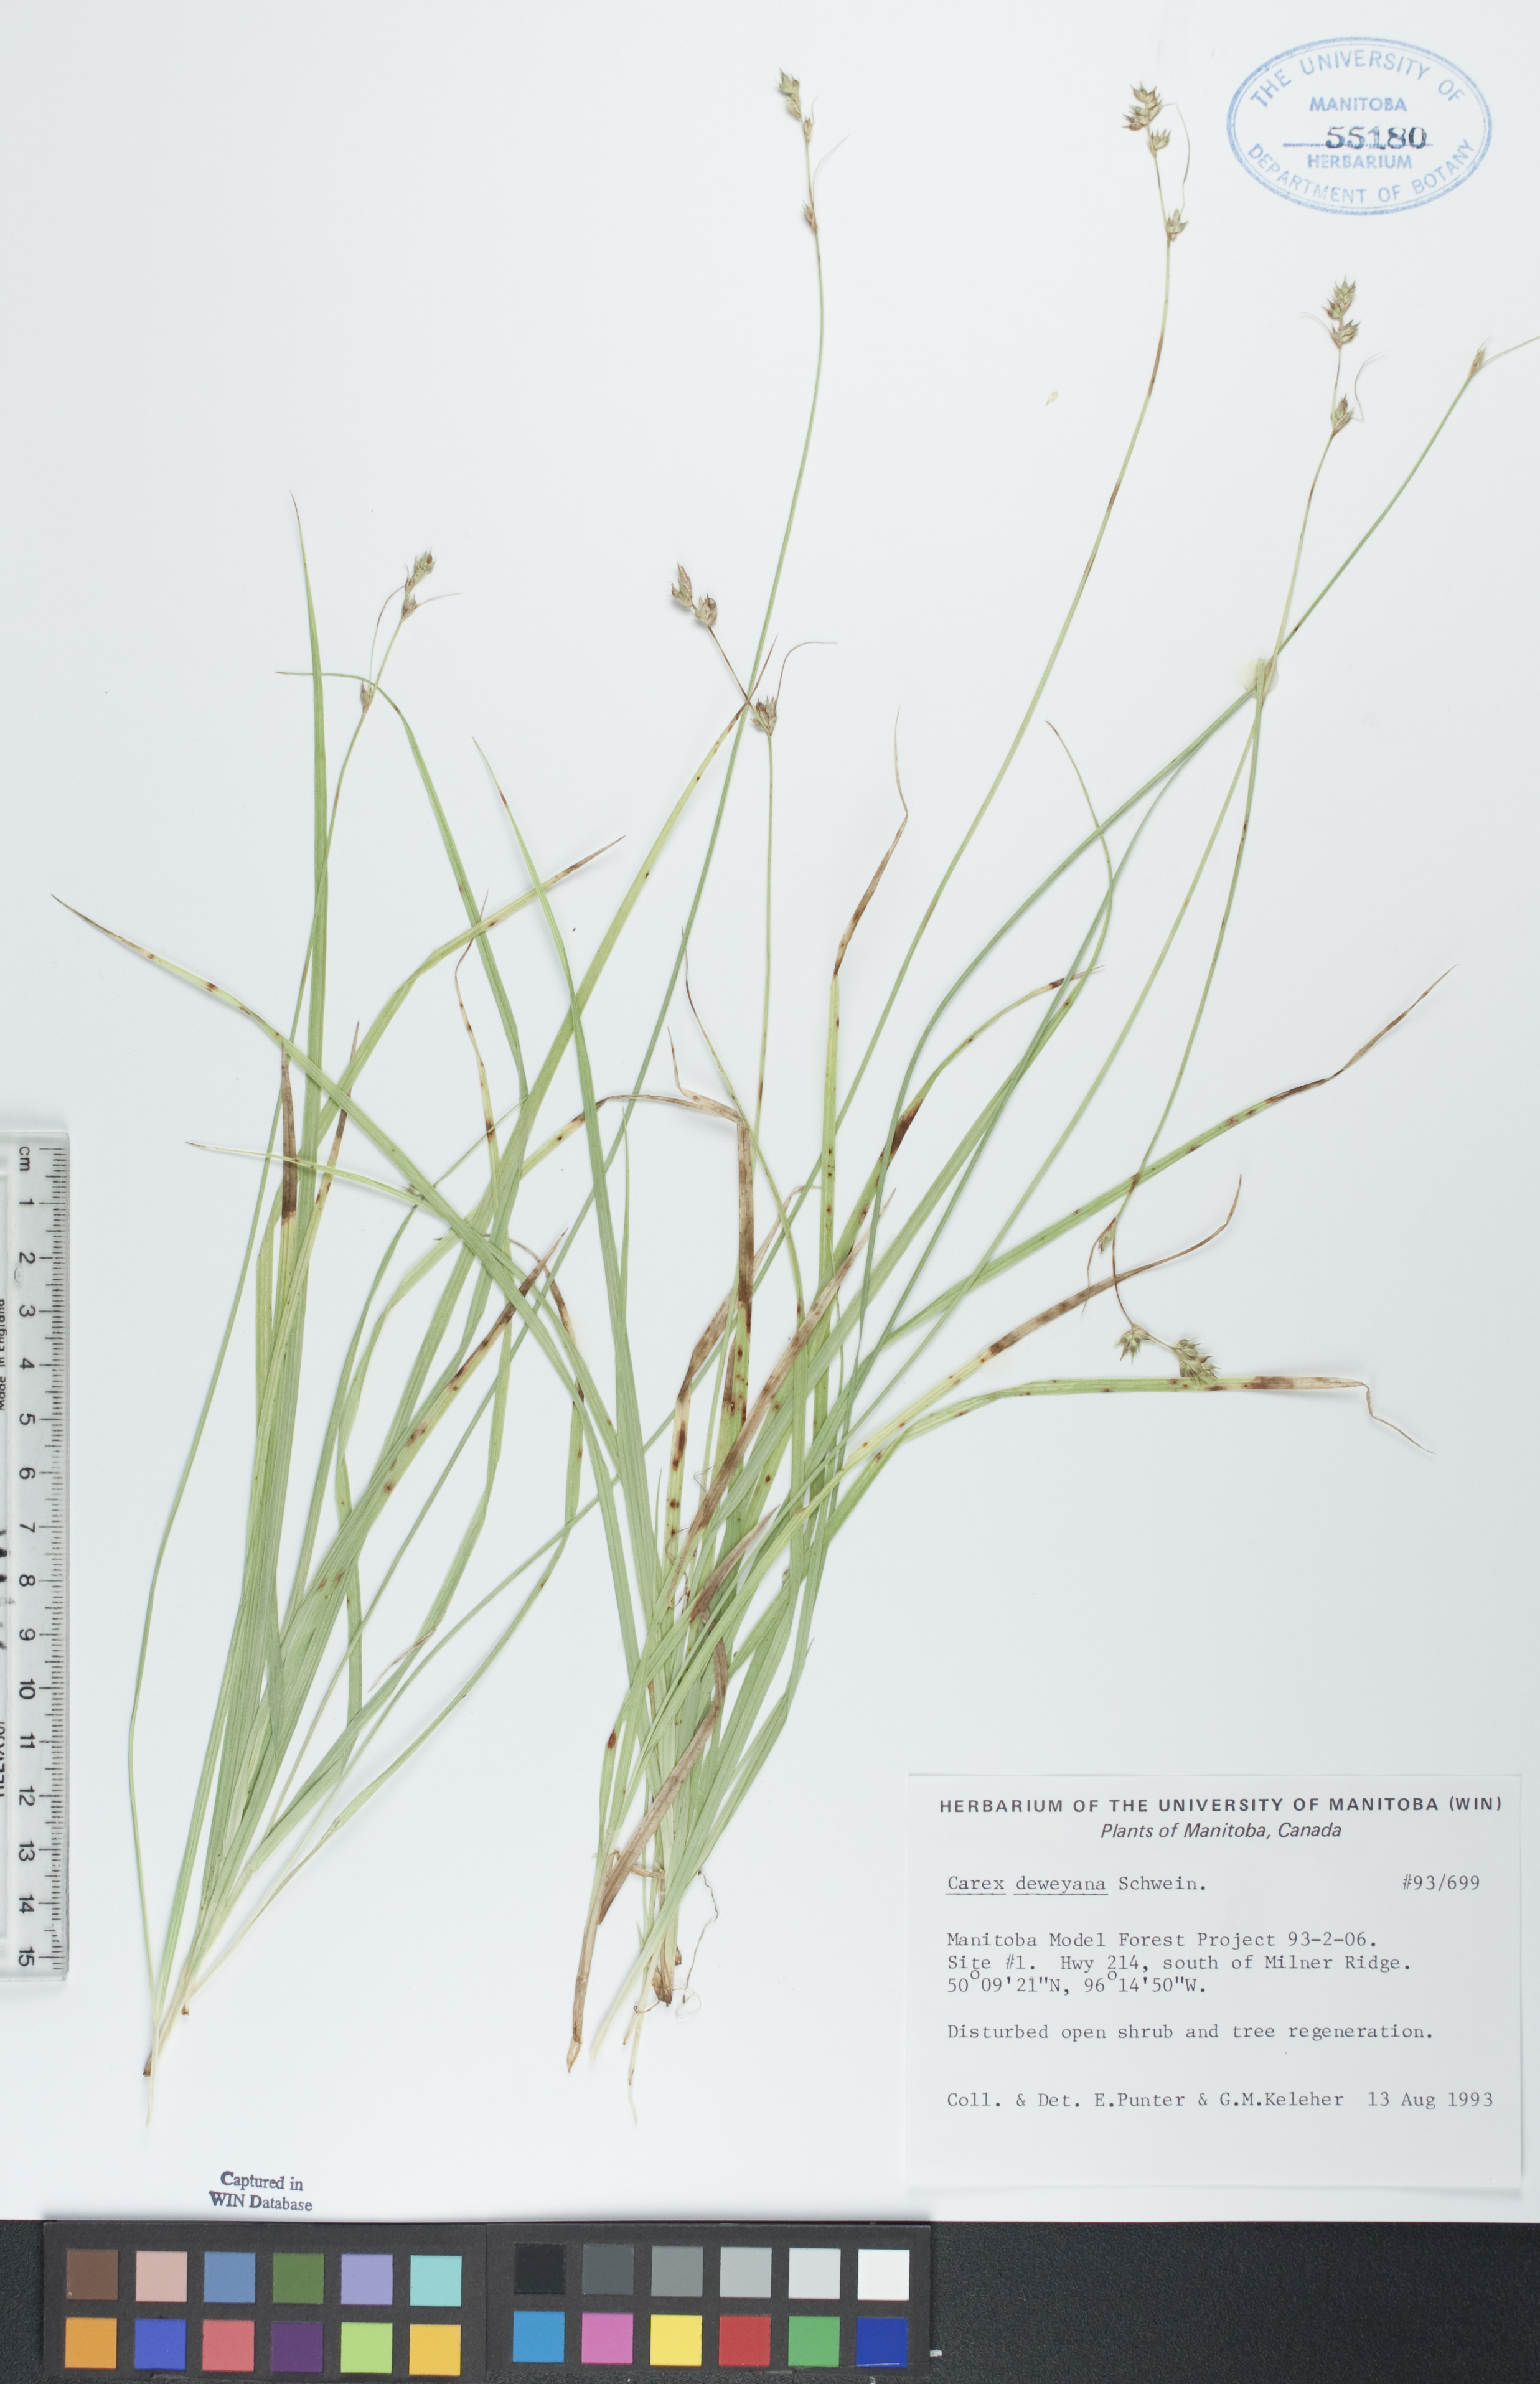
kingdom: Plantae
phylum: Tracheophyta
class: Liliopsida
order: Poales
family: Cyperaceae
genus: Carex
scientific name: Carex deweyana
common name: Dewey's sedge
